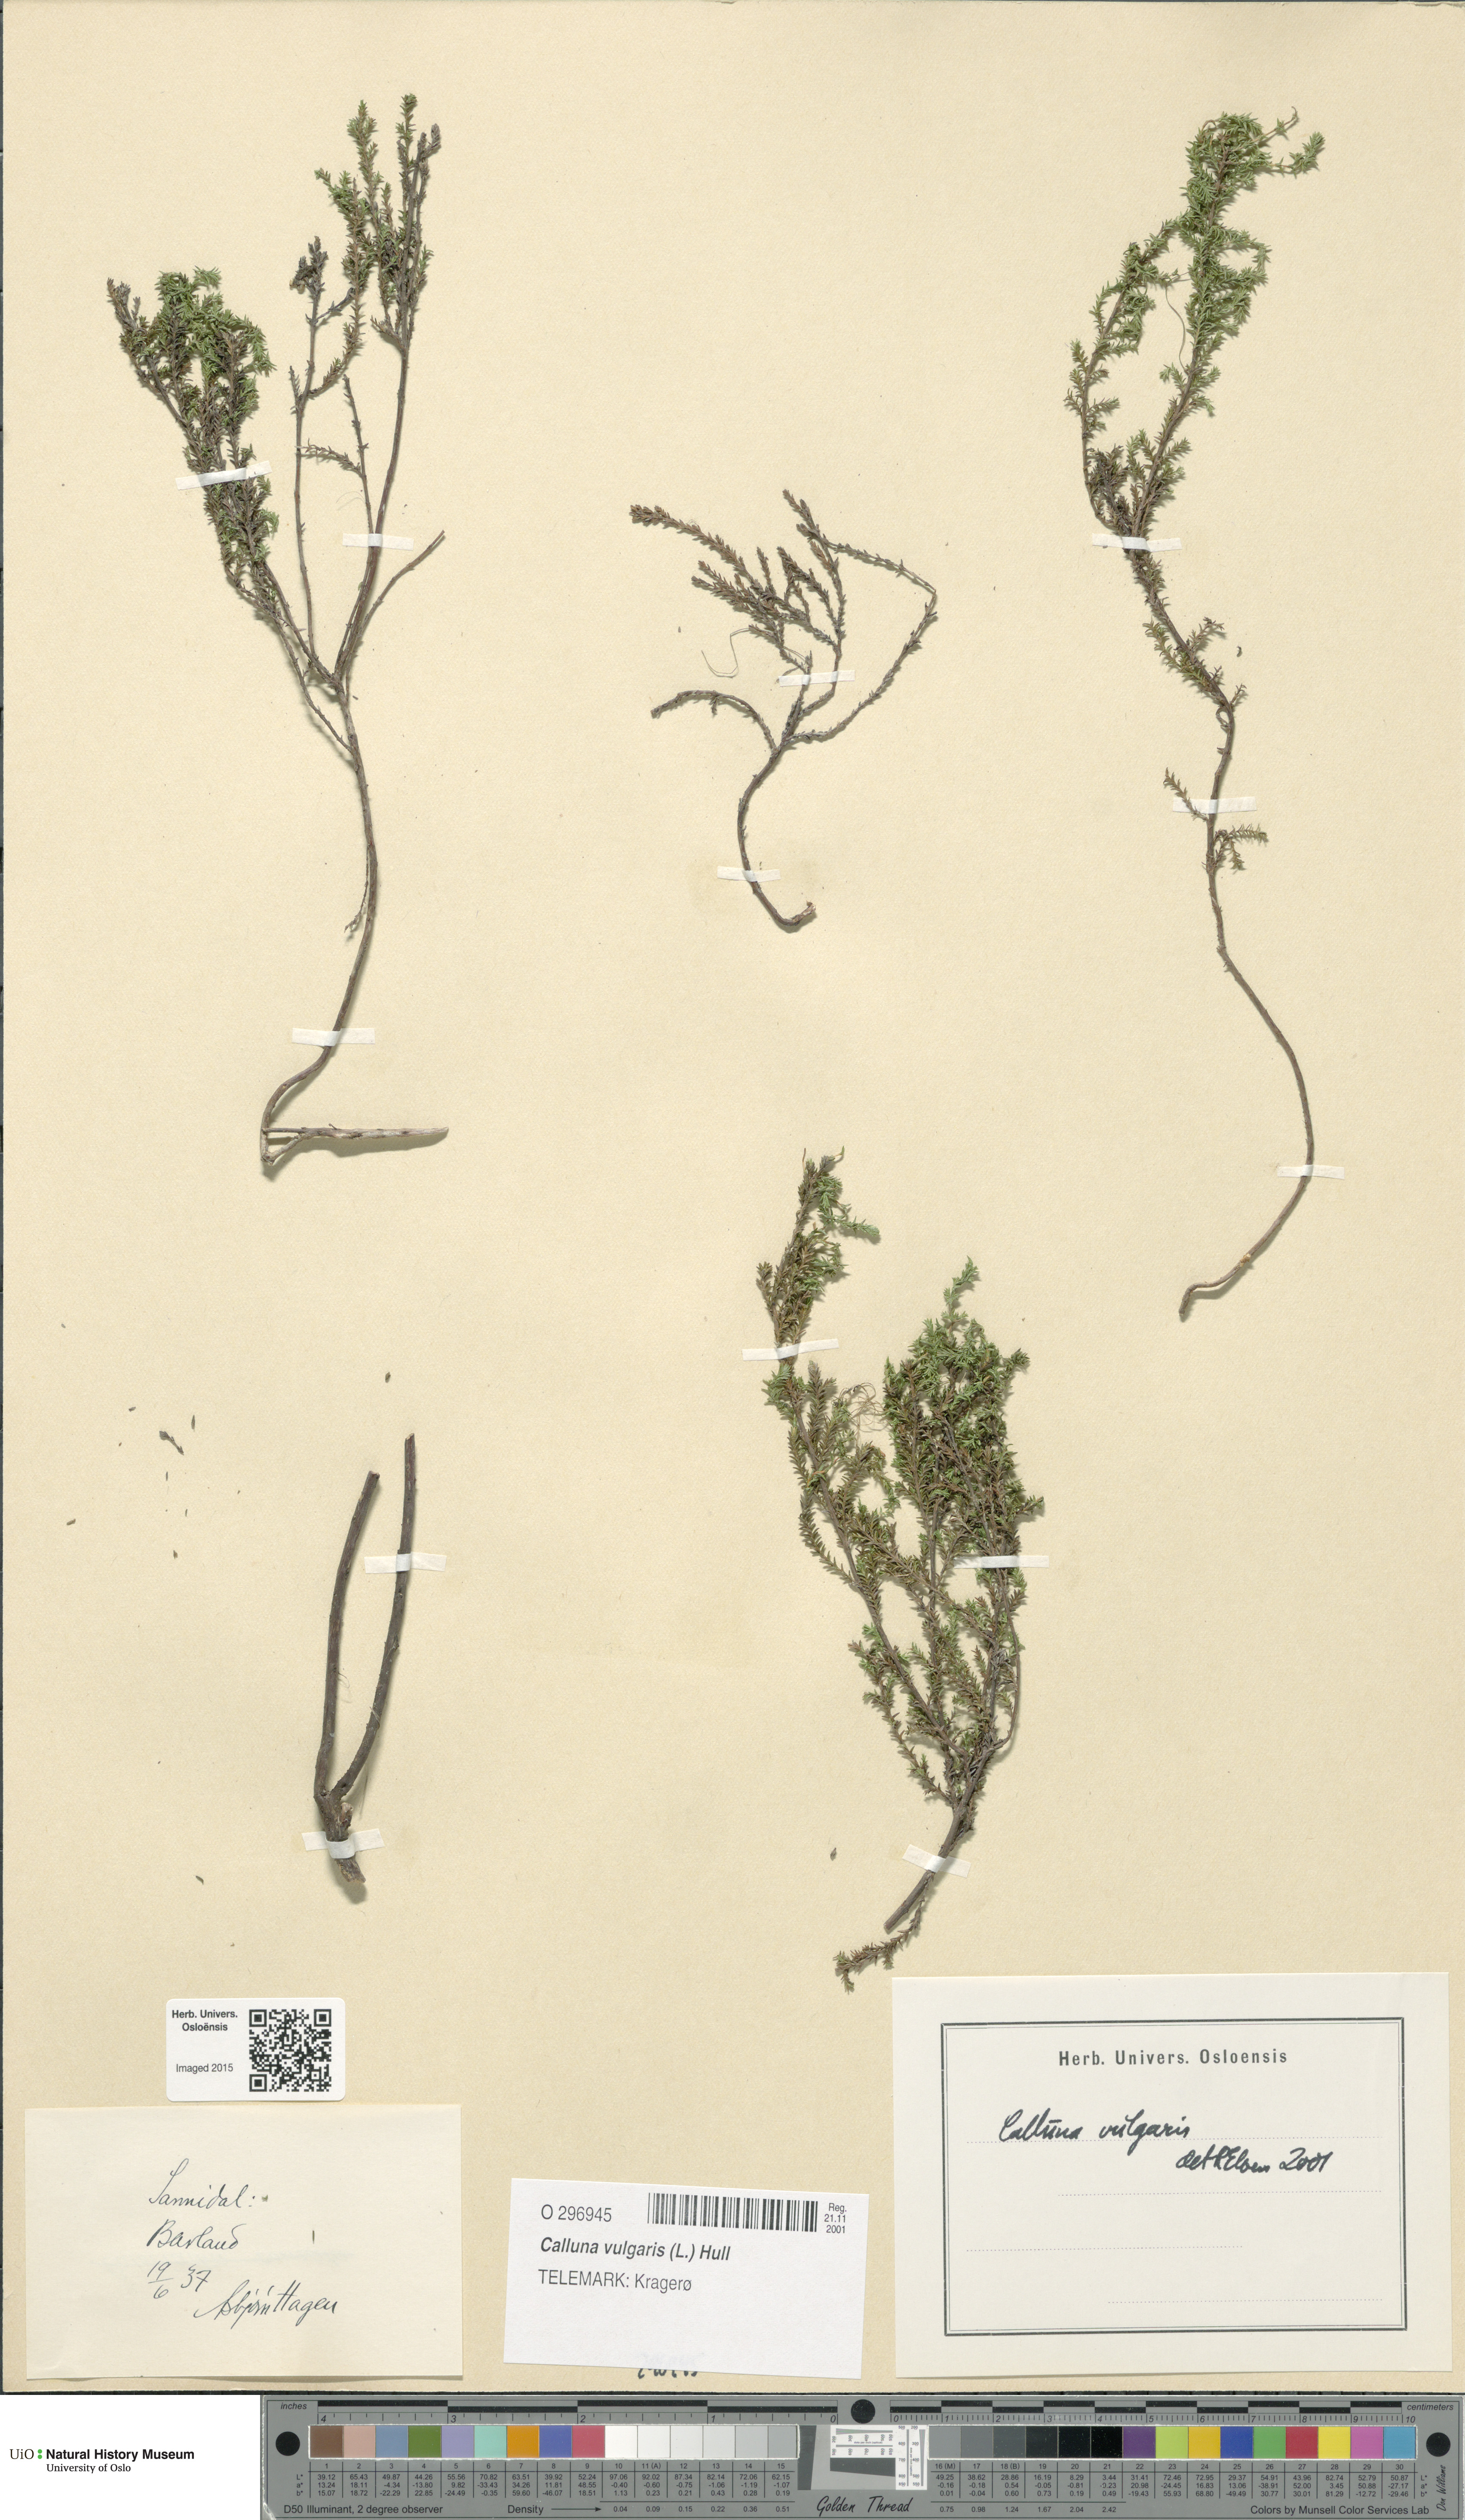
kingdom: Plantae
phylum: Tracheophyta
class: Magnoliopsida
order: Ericales
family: Ericaceae
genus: Calluna
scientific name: Calluna vulgaris
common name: Heather
